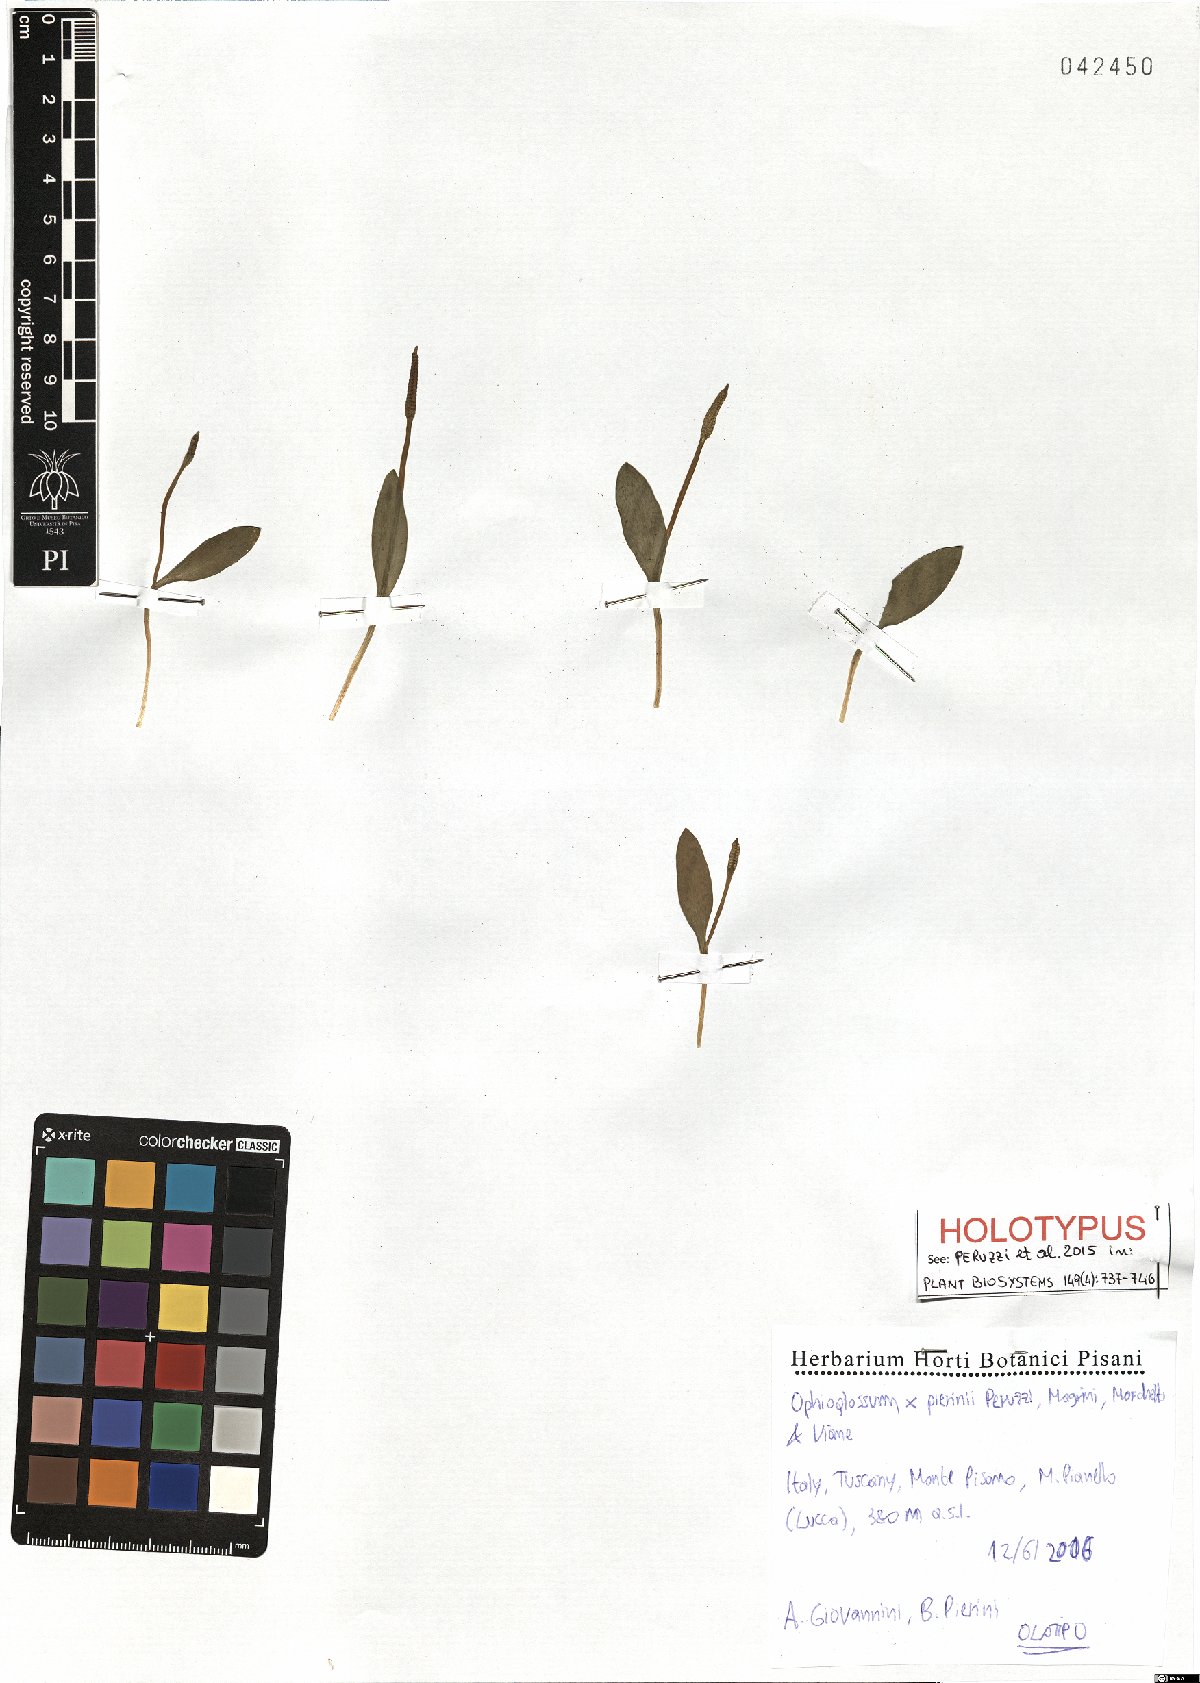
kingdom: Plantae
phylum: Tracheophyta
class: Polypodiopsida
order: Ophioglossales
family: Ophioglossaceae
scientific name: Ophioglossaceae
